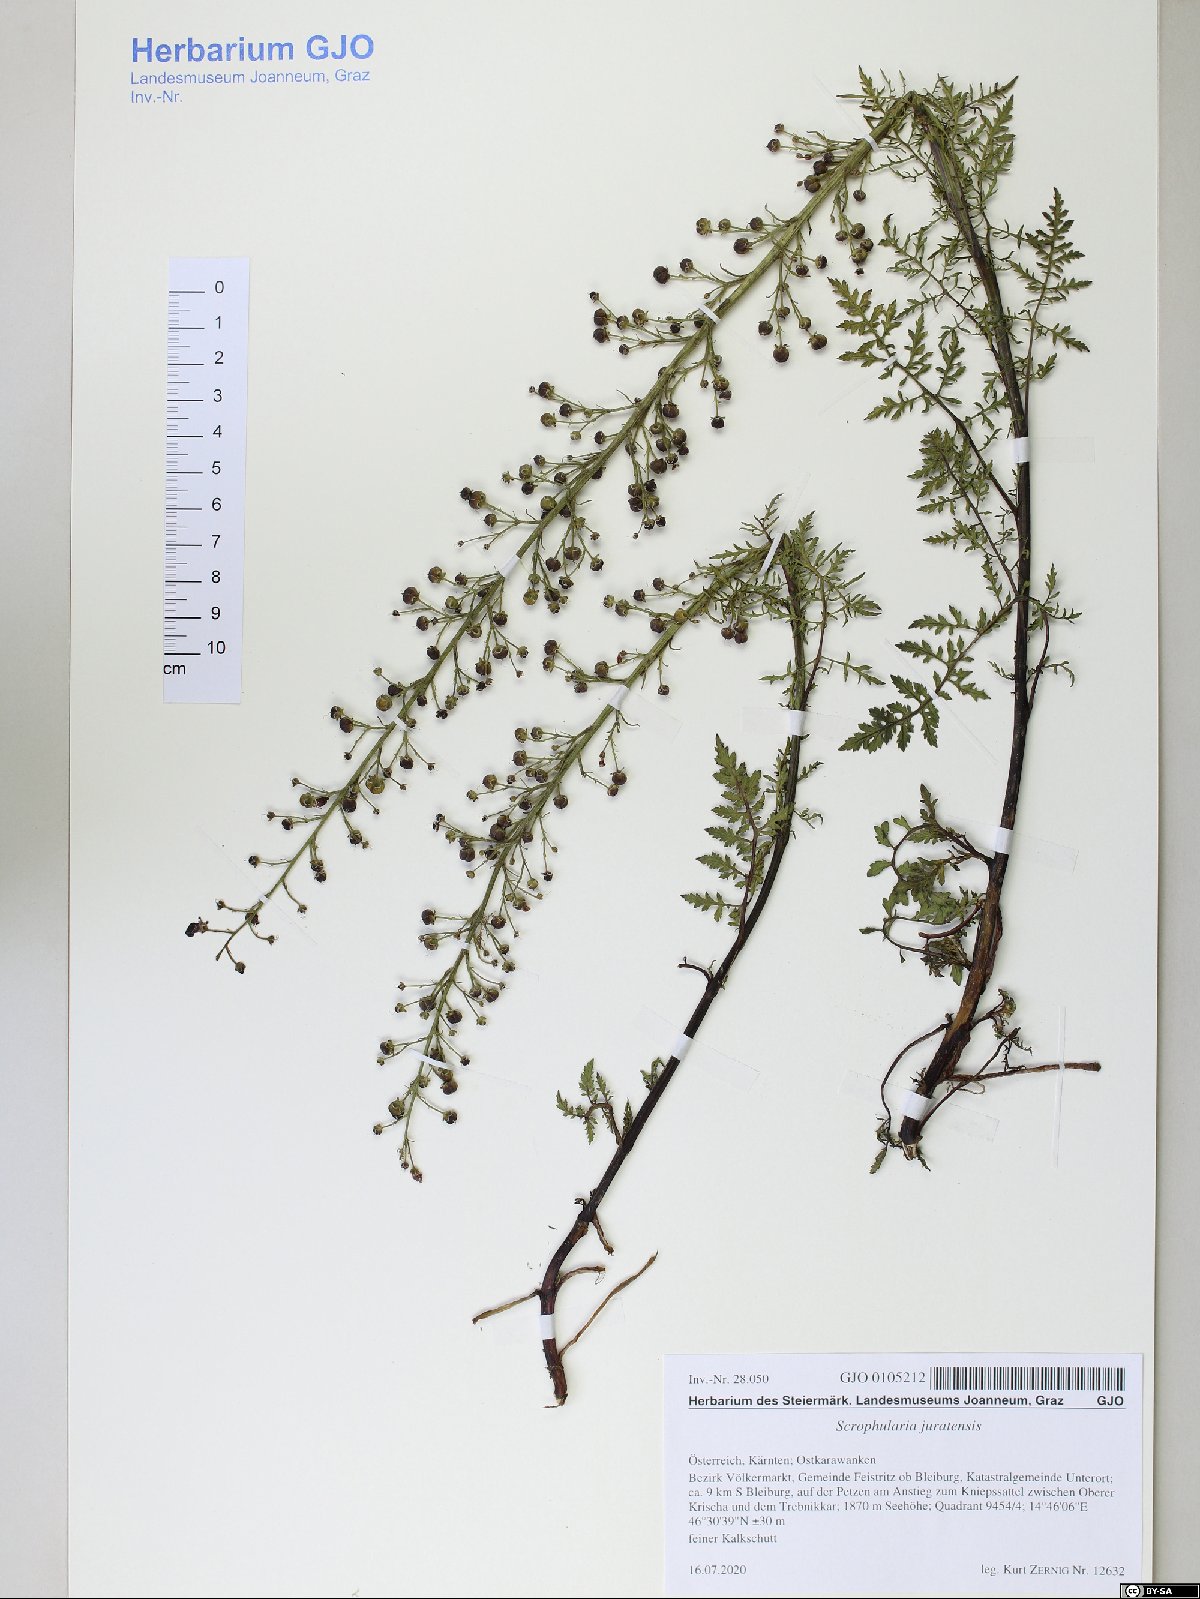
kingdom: Plantae
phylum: Tracheophyta
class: Magnoliopsida
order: Lamiales
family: Scrophulariaceae
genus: Scrophularia
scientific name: Scrophularia canina
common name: French figwort
